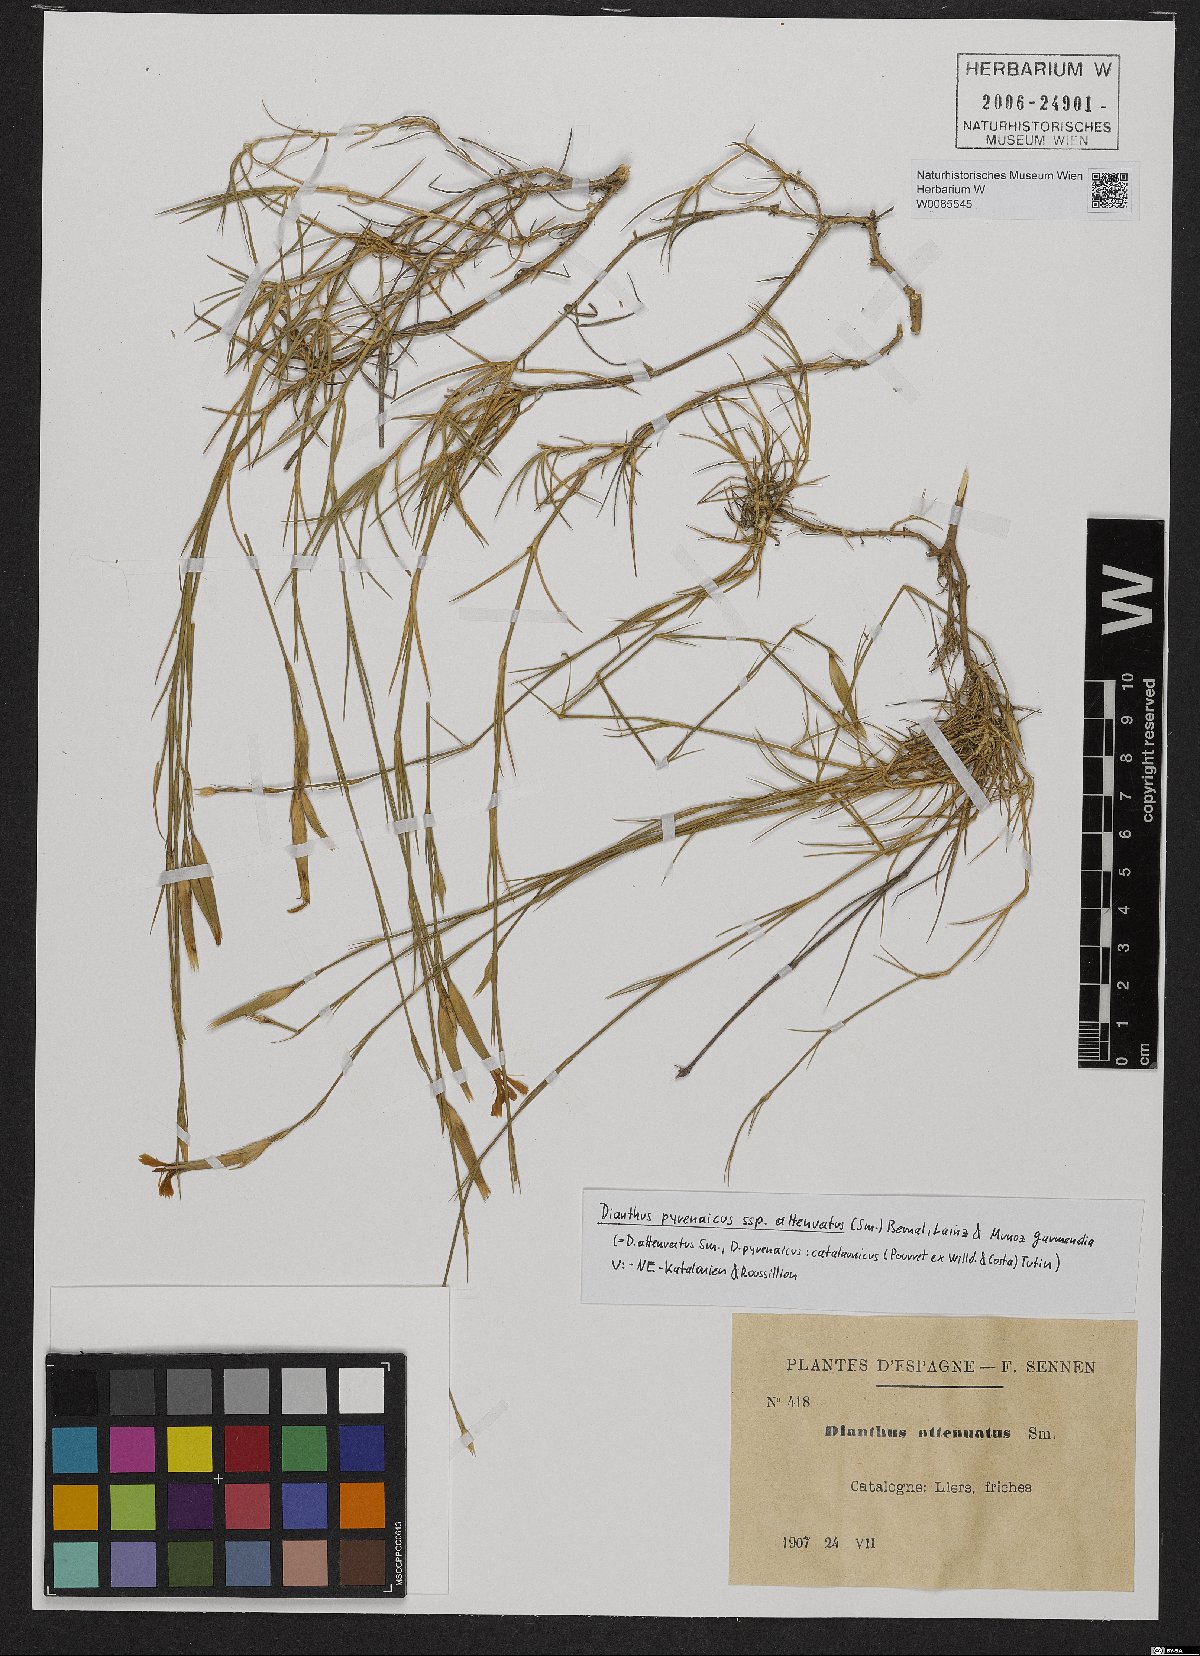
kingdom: Plantae
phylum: Tracheophyta
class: Magnoliopsida
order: Caryophyllales
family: Caryophyllaceae
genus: Dianthus
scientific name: Dianthus pyrenaicus
